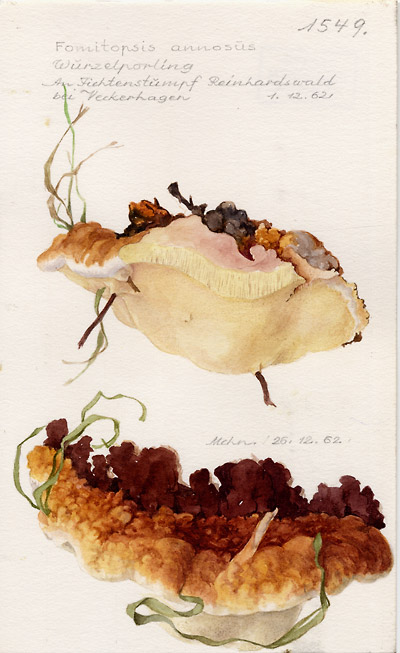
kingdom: Fungi
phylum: Basidiomycota
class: Agaricomycetes
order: Russulales
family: Bondarzewiaceae
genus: Heterobasidion
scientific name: Heterobasidion annosum
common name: Root rot
